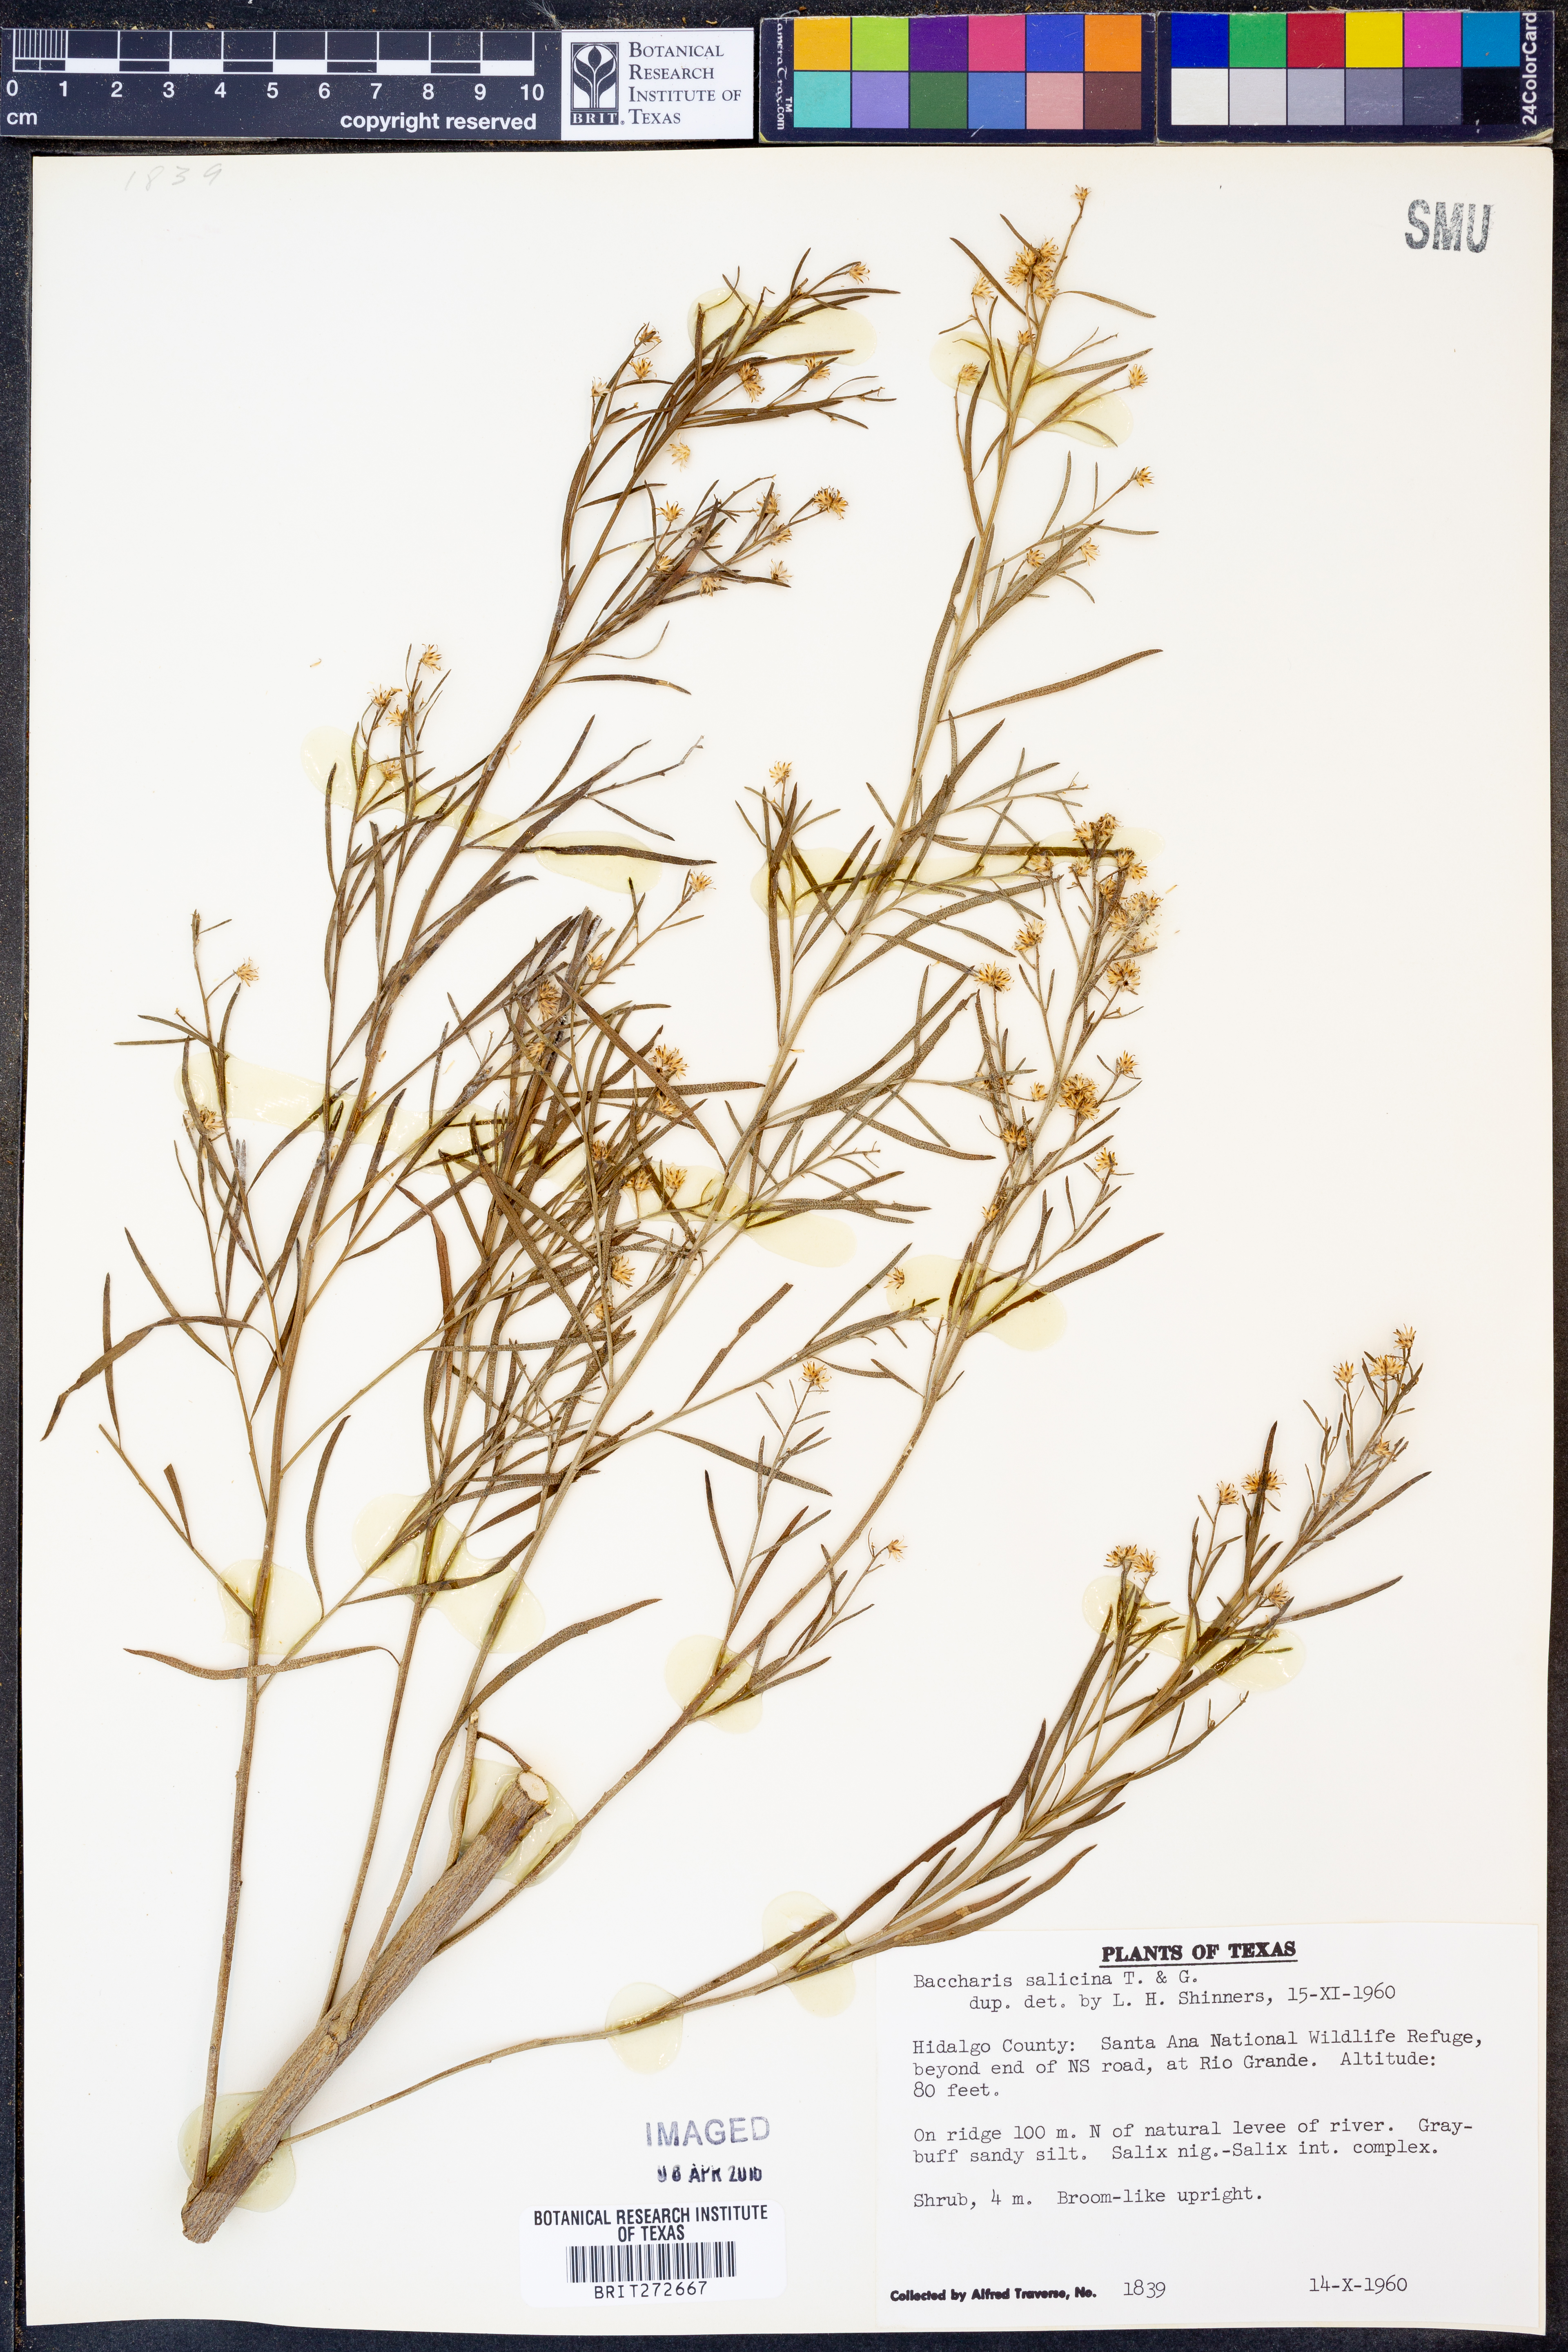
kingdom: Plantae
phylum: Tracheophyta
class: Magnoliopsida
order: Asterales
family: Asteraceae
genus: Baccharis
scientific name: Baccharis salicina
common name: Willow baccharis
